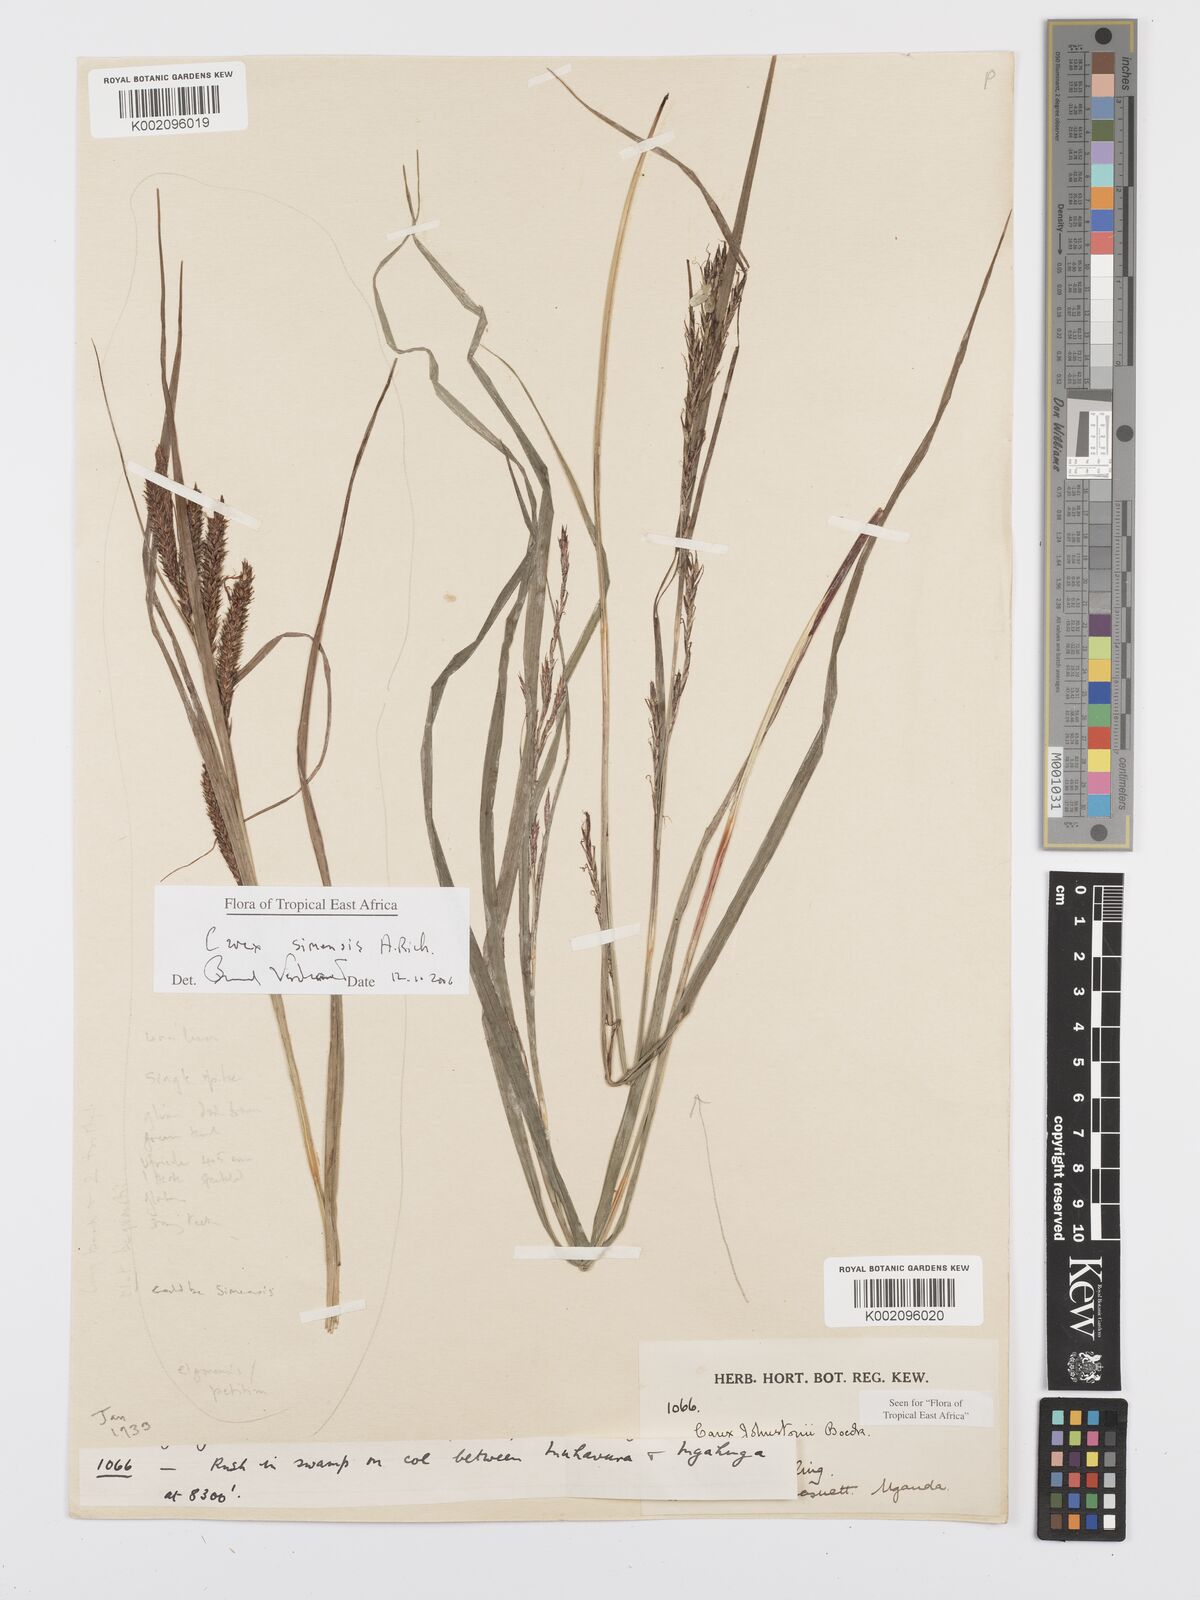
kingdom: Plantae
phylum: Tracheophyta
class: Liliopsida
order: Poales
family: Cyperaceae
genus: Carex
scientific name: Carex simensis
